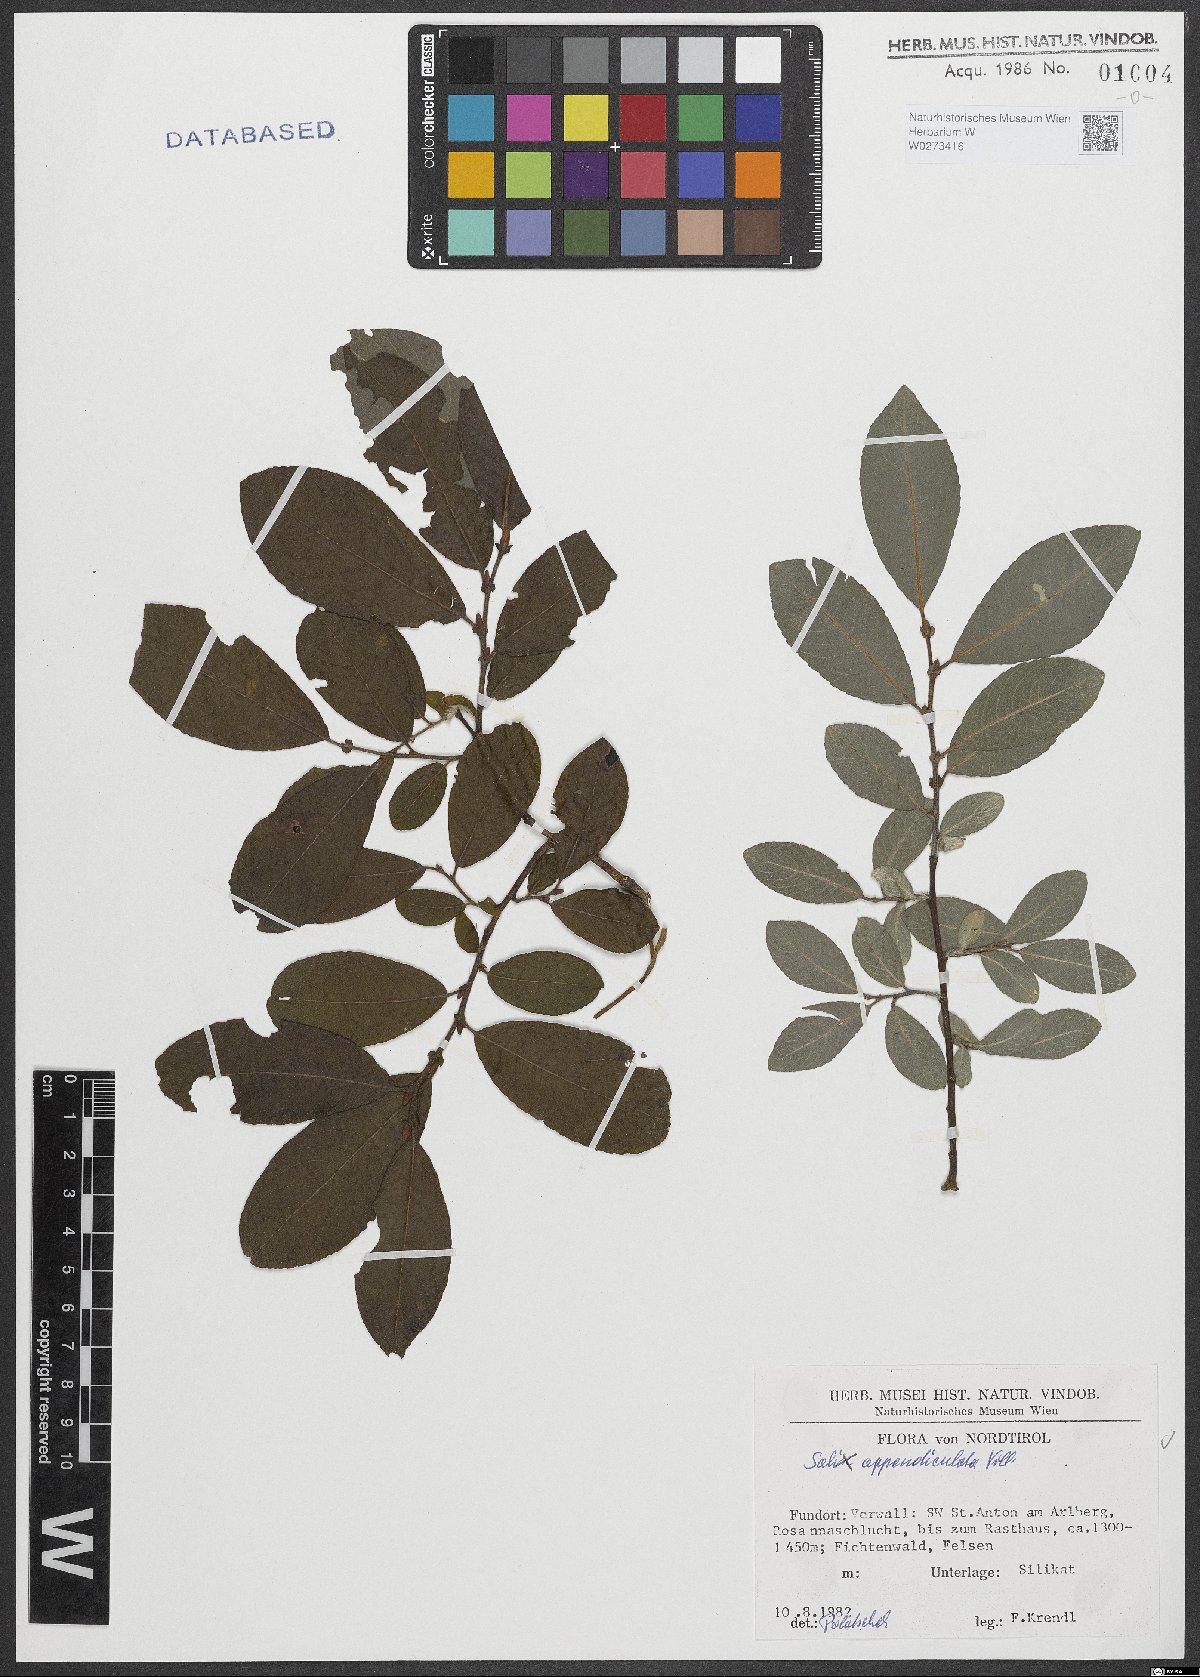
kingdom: Plantae
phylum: Tracheophyta
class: Magnoliopsida
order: Malpighiales
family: Salicaceae
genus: Salix
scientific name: Salix appendiculata
